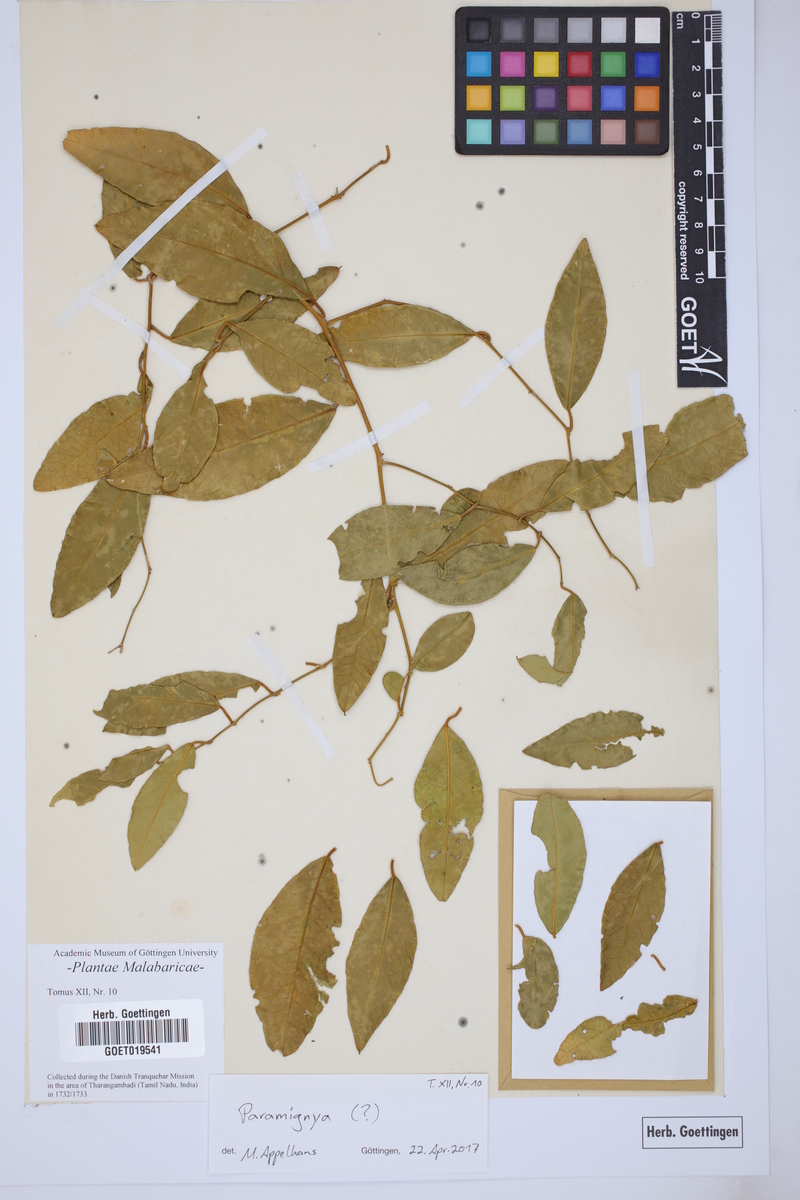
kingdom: Plantae
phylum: Tracheophyta
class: Magnoliopsida
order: Sapindales
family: Rutaceae
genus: Paramignya
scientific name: Paramignya
